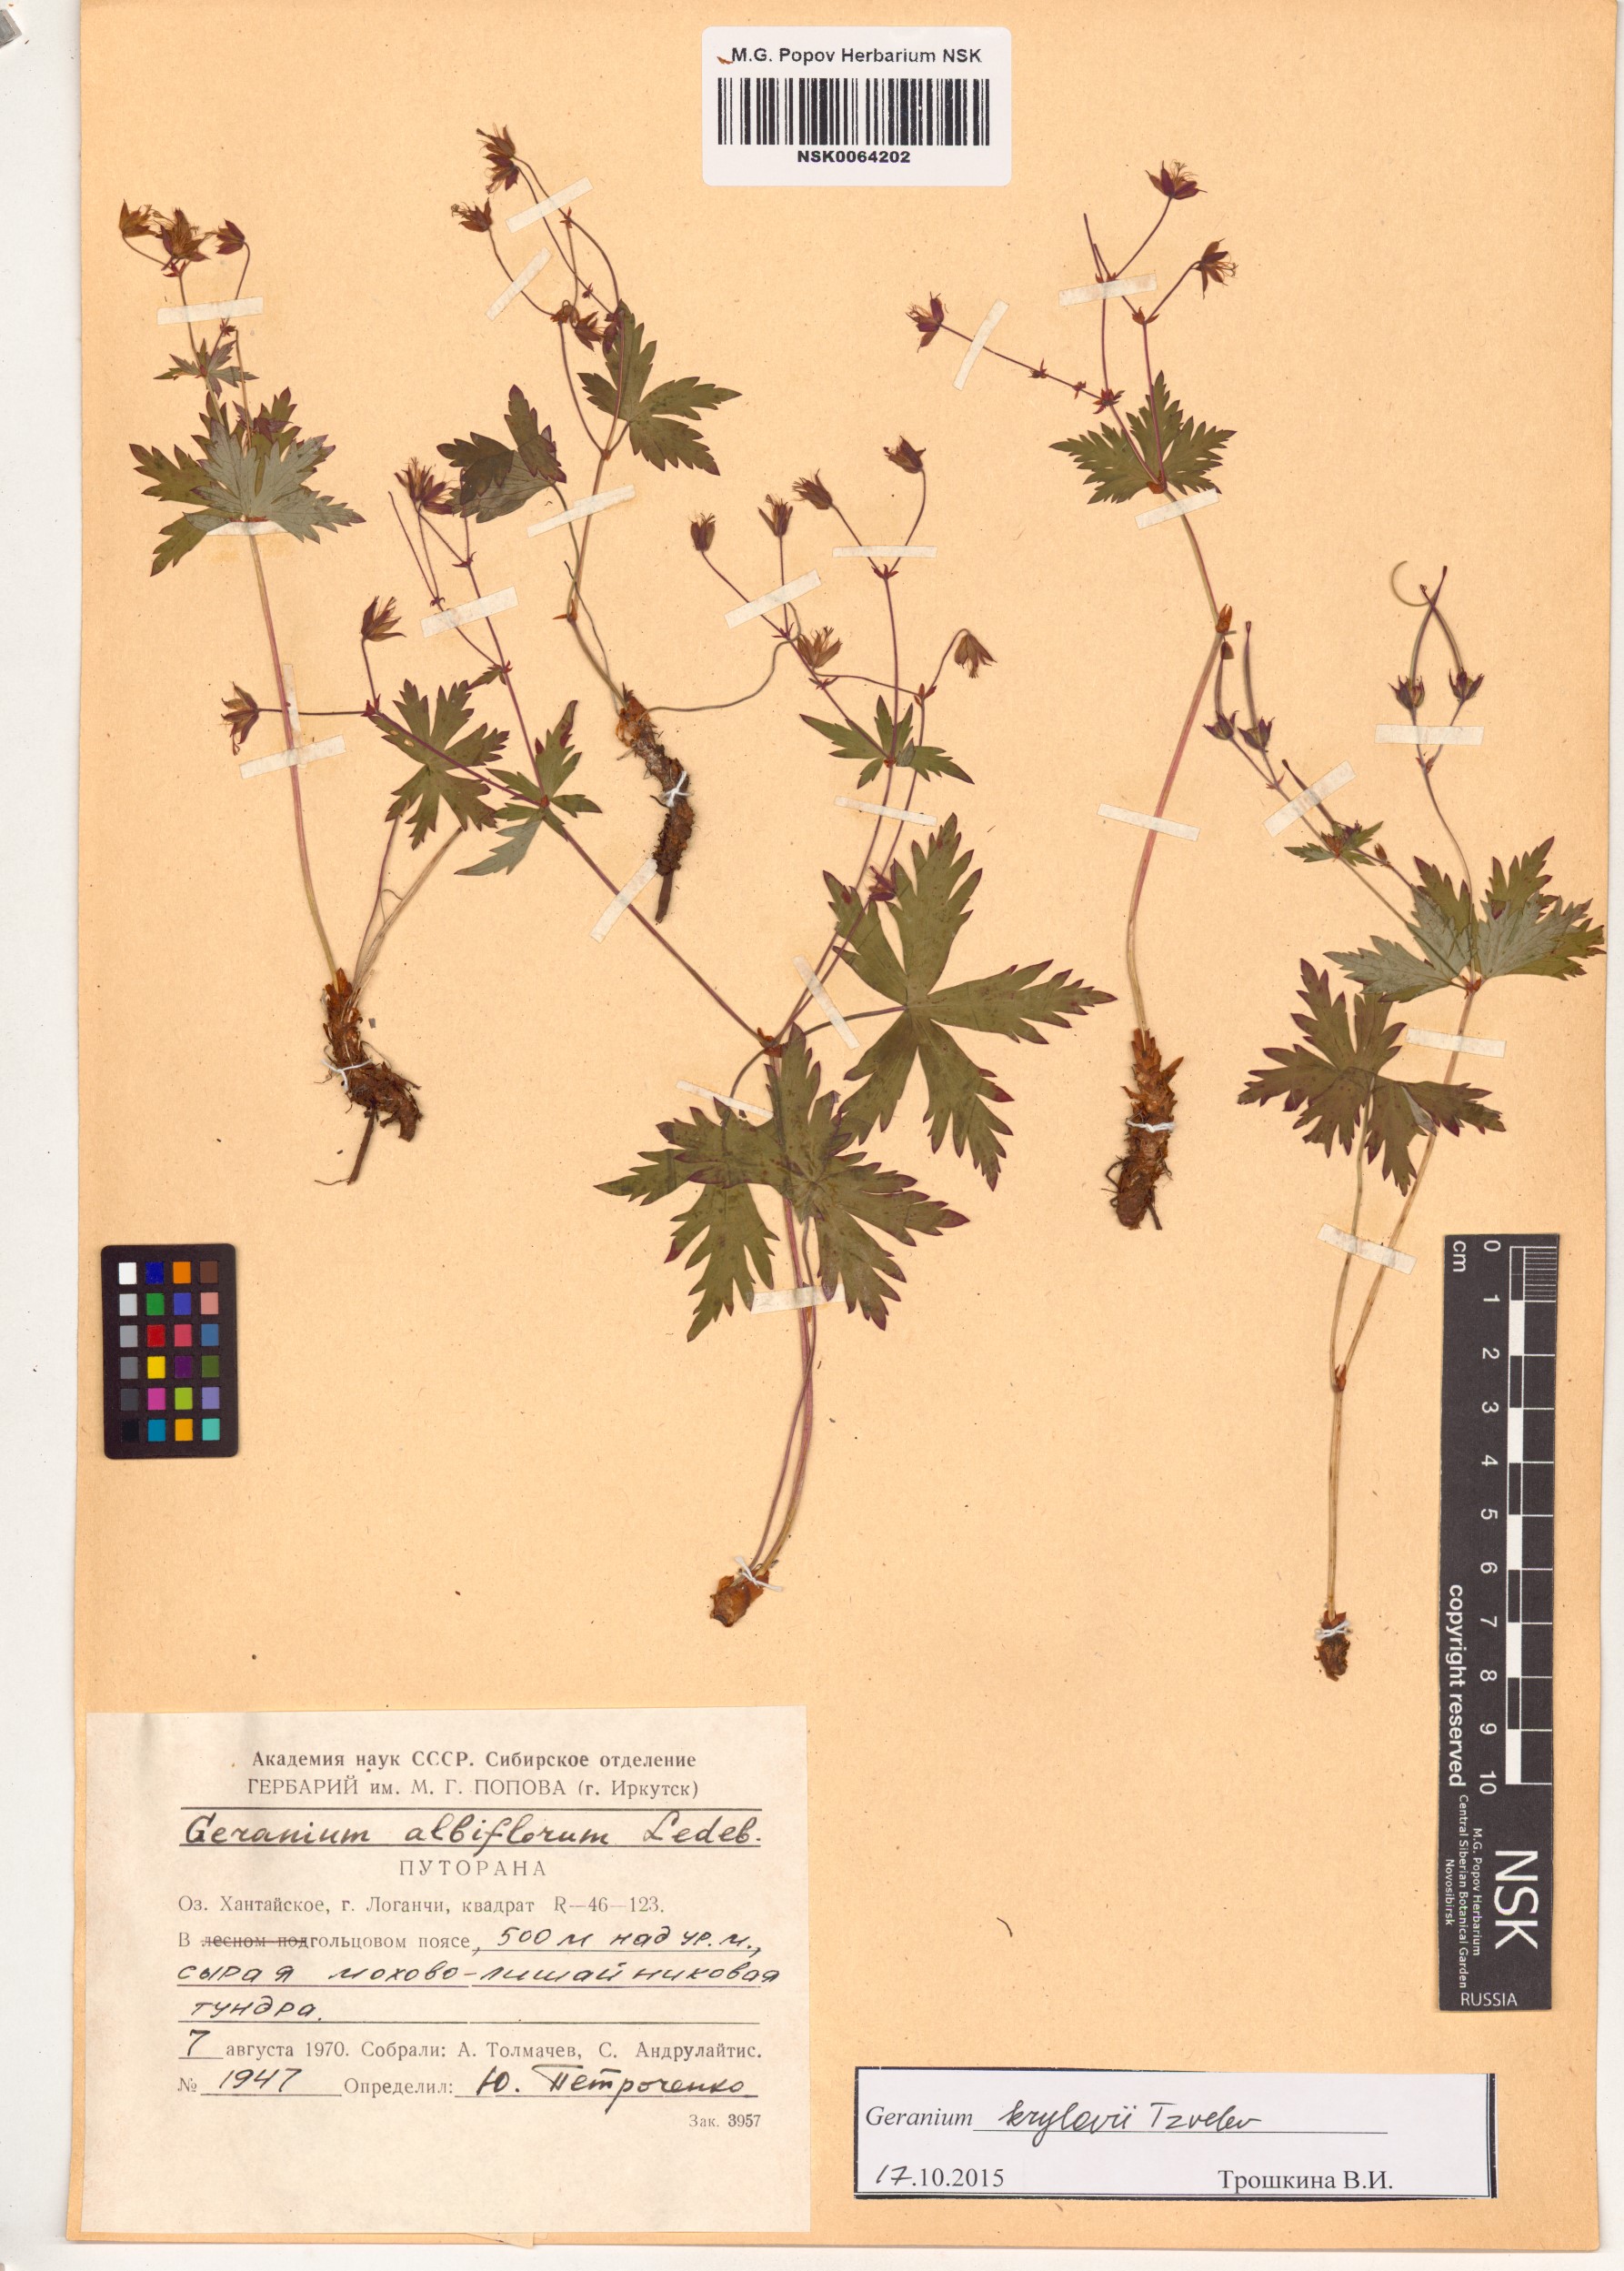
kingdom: Plantae
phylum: Tracheophyta
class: Magnoliopsida
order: Geraniales
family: Geraniaceae
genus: Geranium
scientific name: Geranium sylvaticum
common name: Wood crane's-bill
